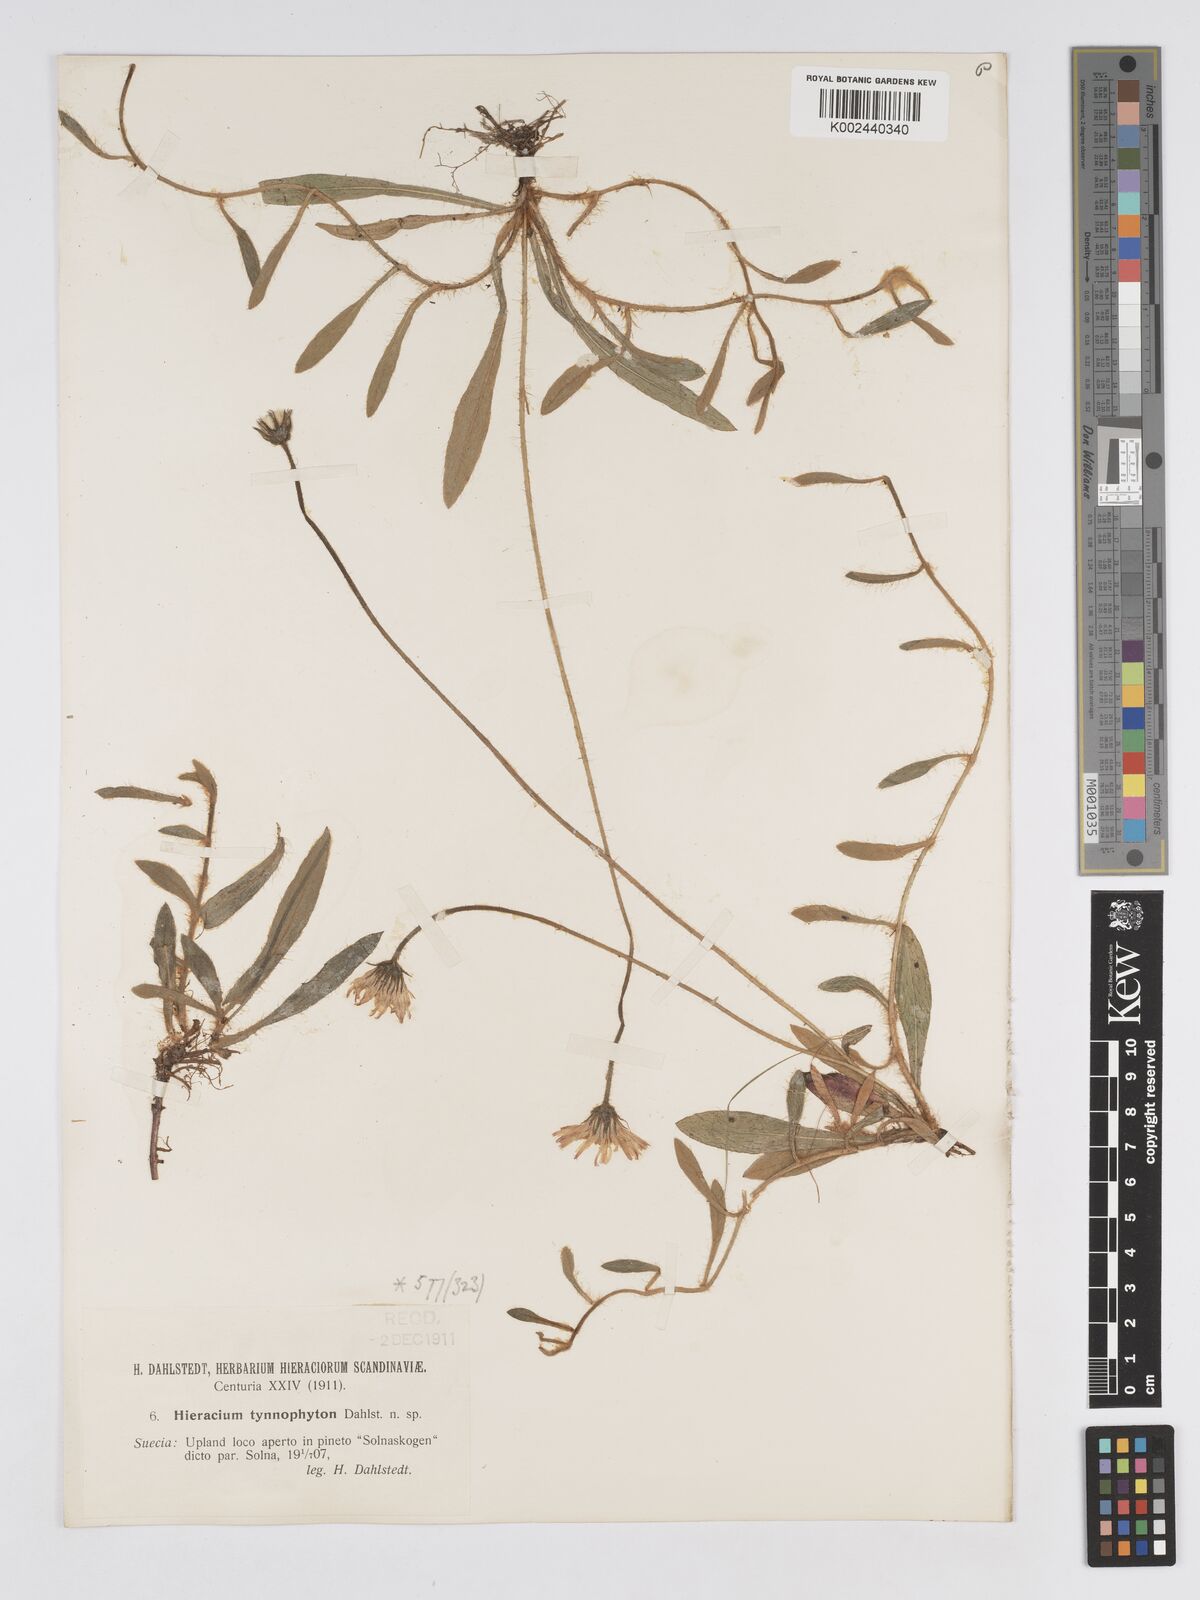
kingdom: Plantae
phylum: Tracheophyta
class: Magnoliopsida
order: Asterales
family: Asteraceae
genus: Pilosella
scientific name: Pilosella officinarum
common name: Mouse-ear hawkweed
